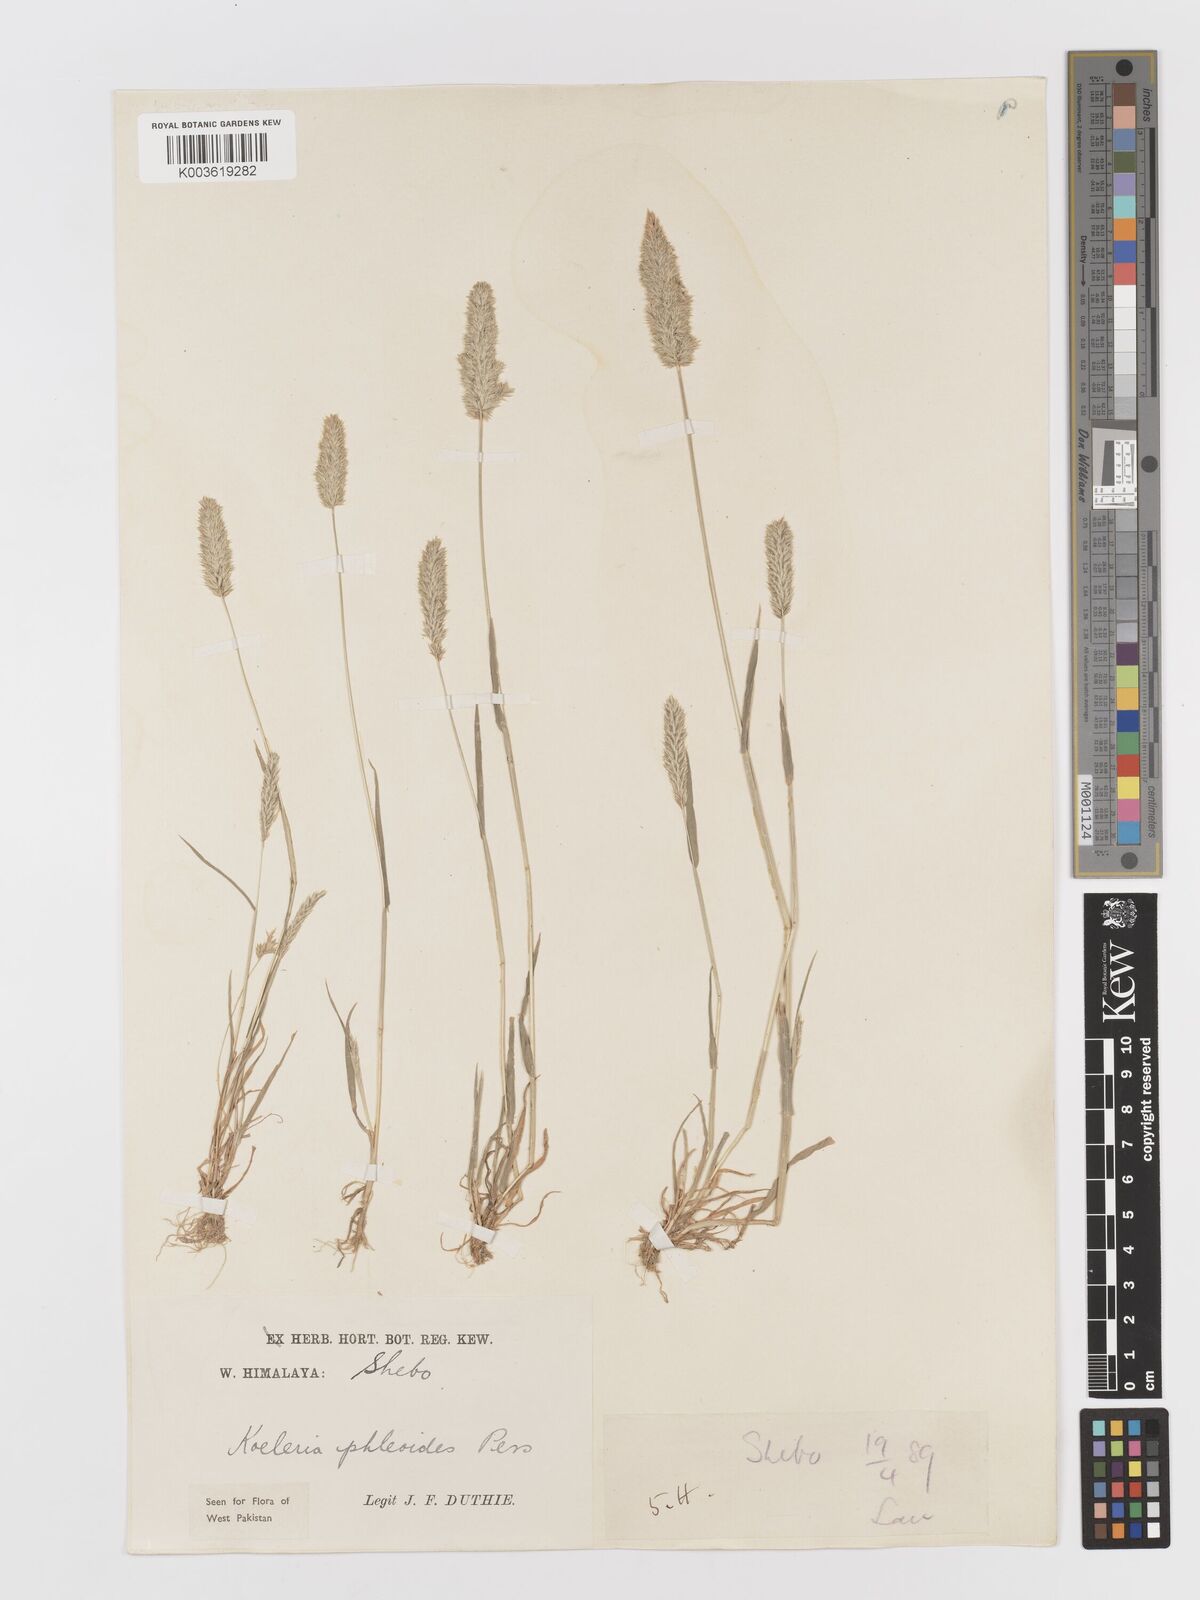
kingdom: Plantae
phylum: Tracheophyta
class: Liliopsida
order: Poales
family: Poaceae
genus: Rostraria
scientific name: Rostraria cristata
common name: Mediterranean hair-grass
